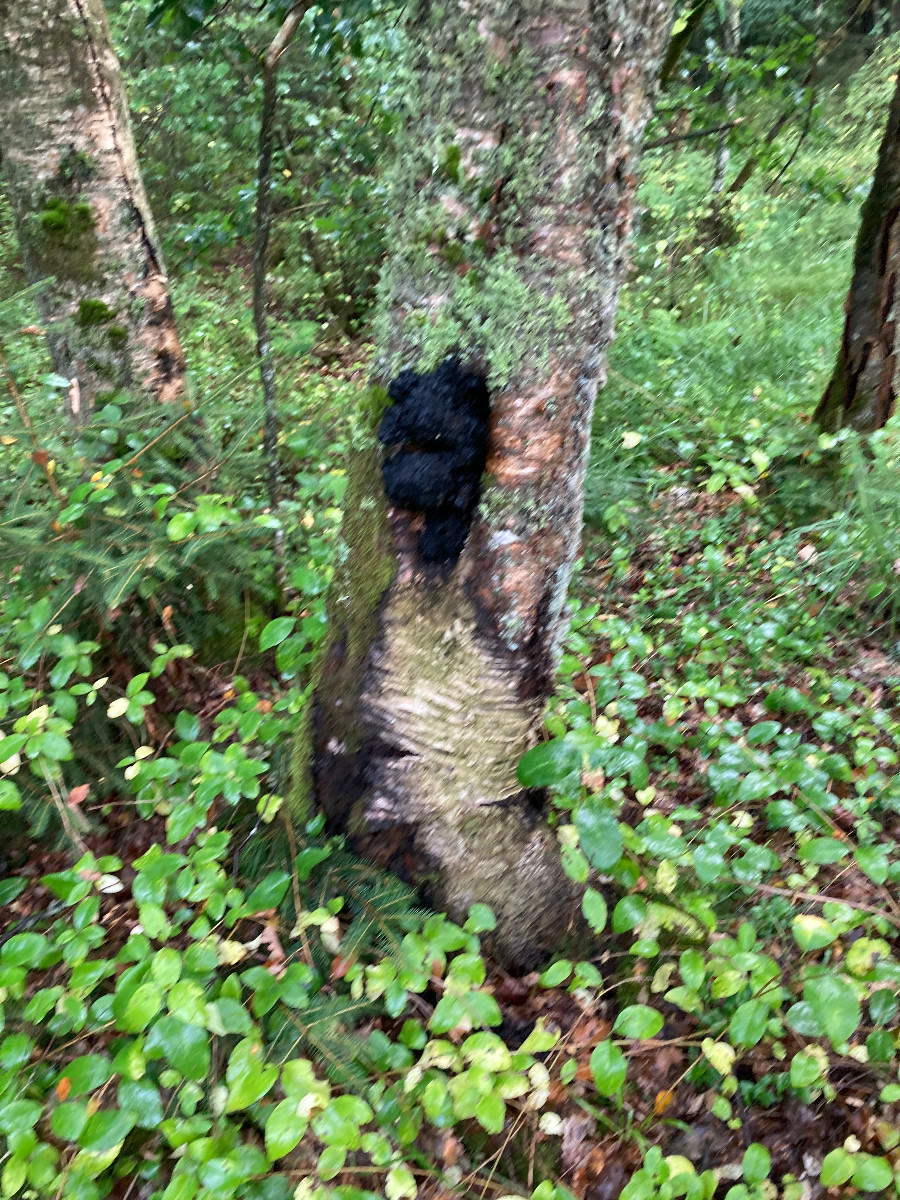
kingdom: Fungi
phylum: Basidiomycota
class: Agaricomycetes
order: Hymenochaetales
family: Hymenochaetaceae
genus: Inonotus
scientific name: Inonotus obliquus
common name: birke-spejlporesvamp
